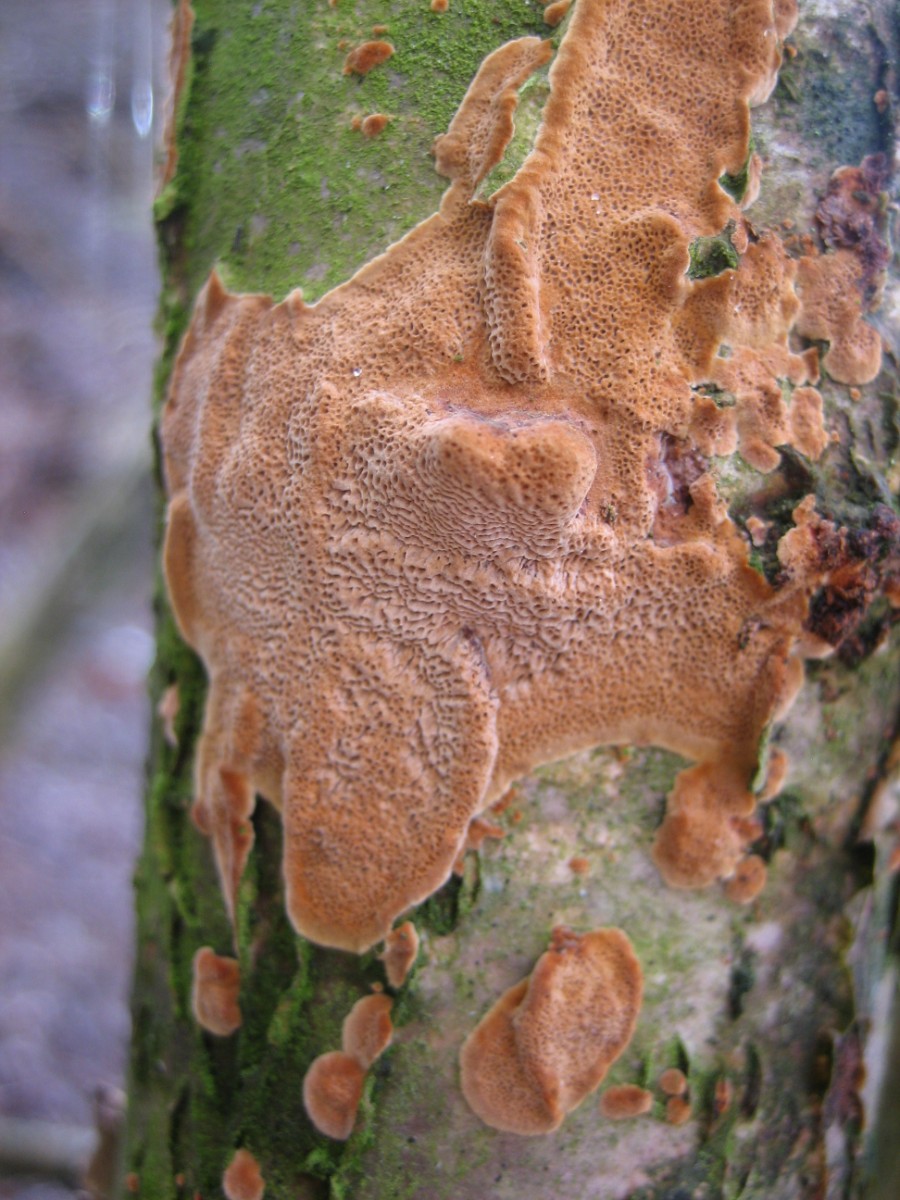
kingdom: Fungi
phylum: Basidiomycota
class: Agaricomycetes
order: Hymenochaetales
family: Hymenochaetaceae
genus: Fuscoporia
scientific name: Fuscoporia ferrea
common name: skorpe-ildporesvamp
